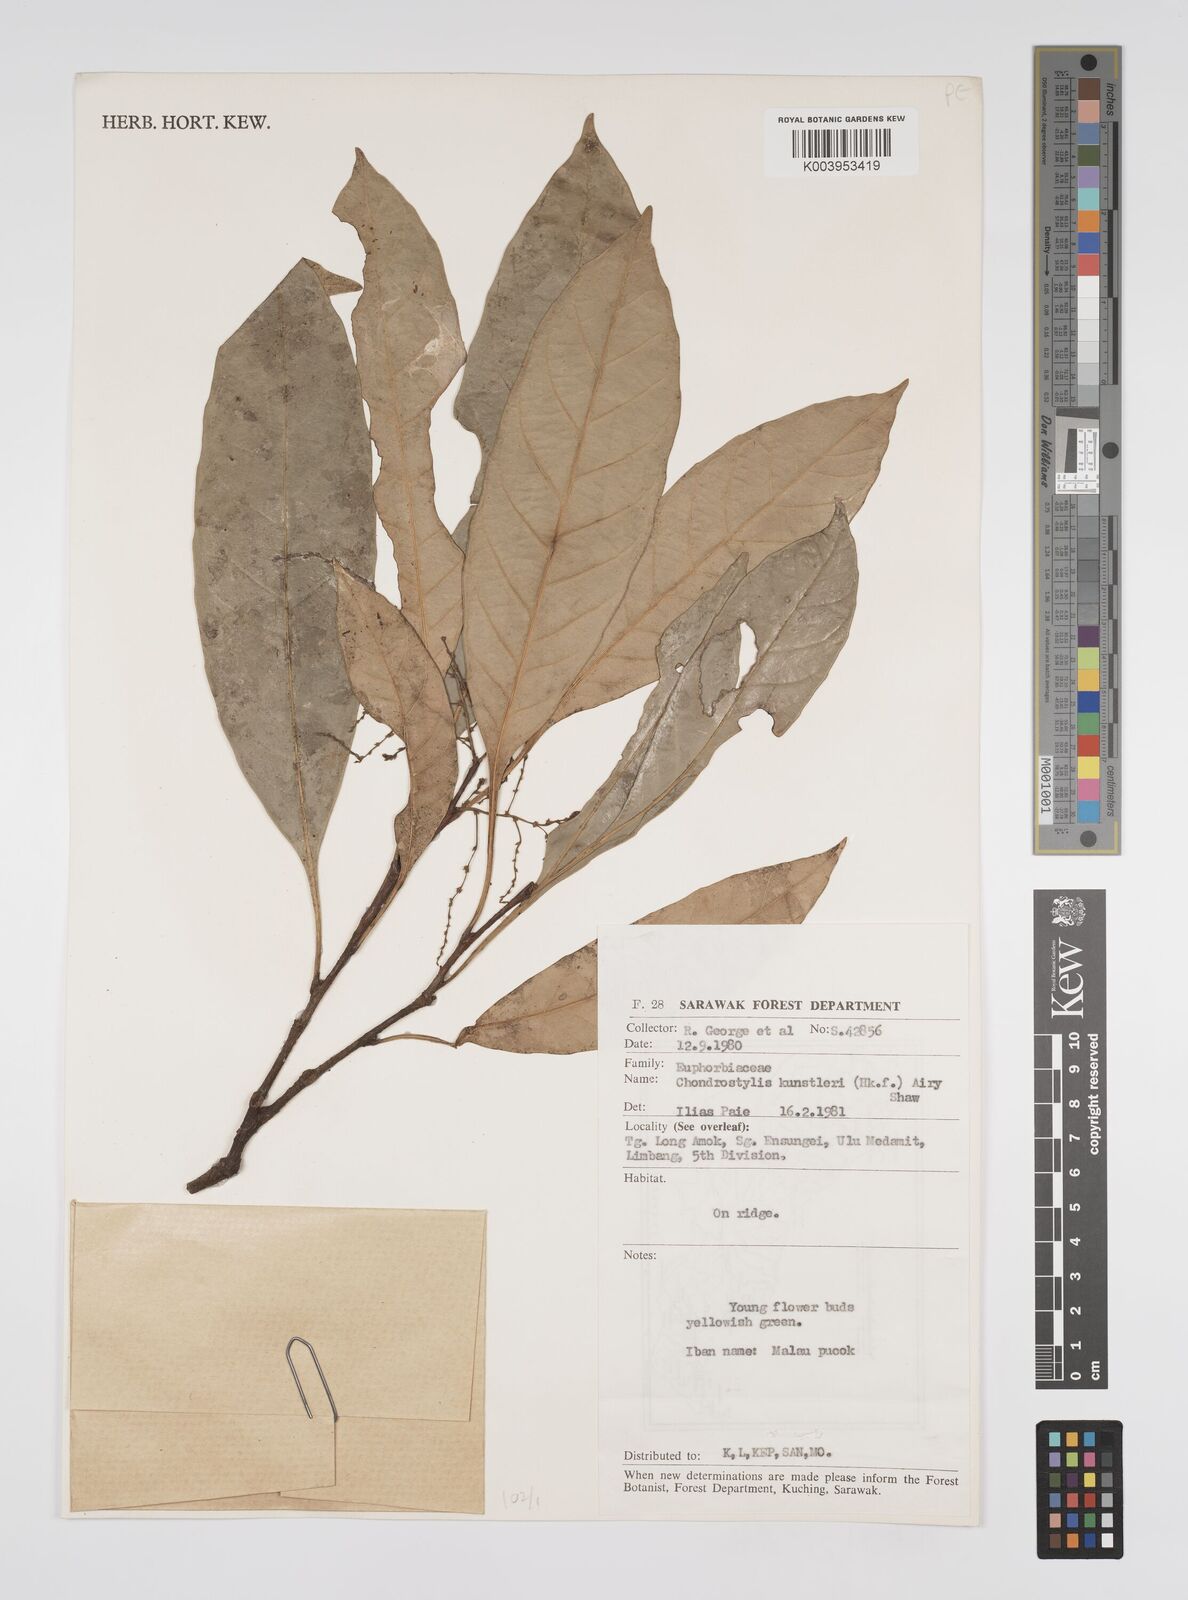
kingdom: Plantae
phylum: Tracheophyta
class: Magnoliopsida
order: Malpighiales
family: Euphorbiaceae
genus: Chondrostylis
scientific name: Chondrostylis kunstleri
